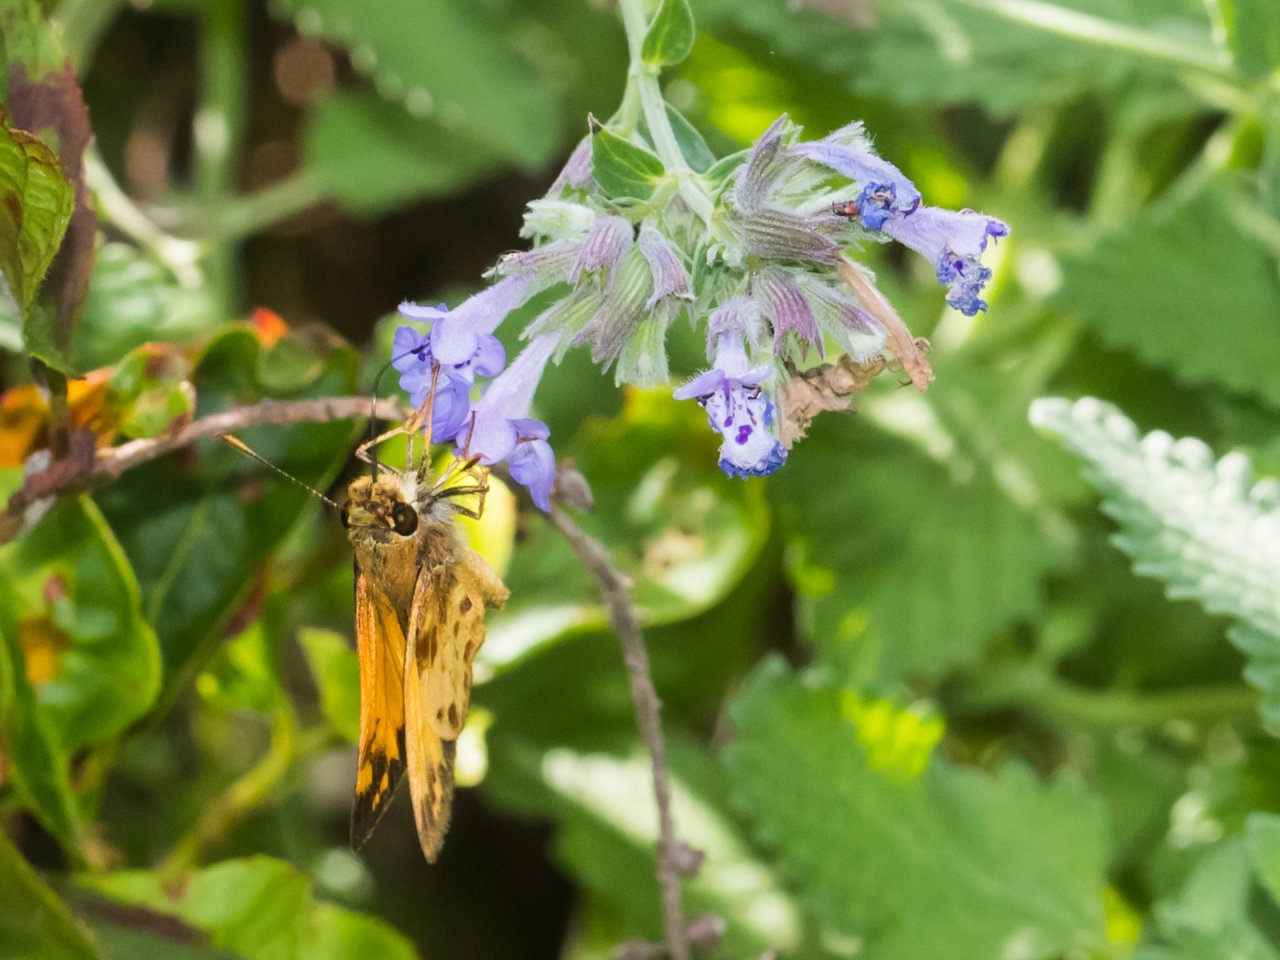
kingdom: Animalia
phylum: Arthropoda
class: Insecta
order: Lepidoptera
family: Hesperiidae
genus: Lon
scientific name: Lon zabulon
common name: Zabulon Skipper
